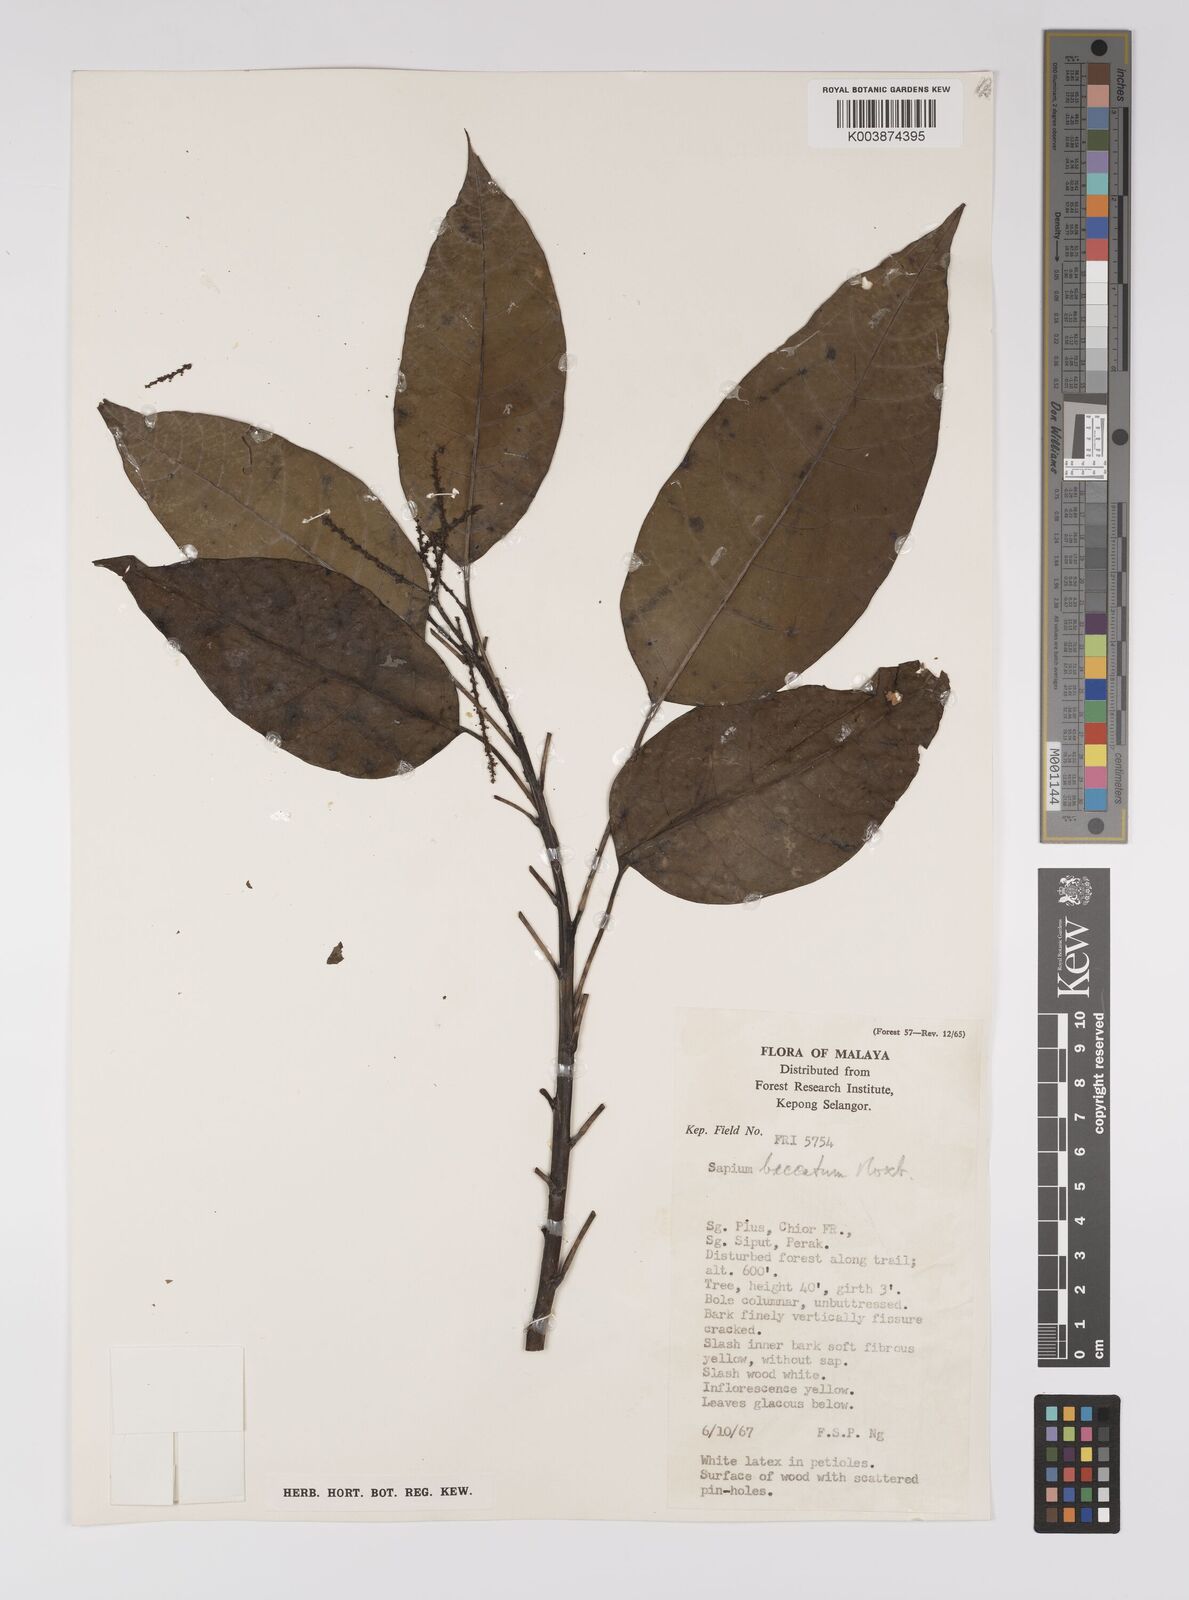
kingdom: Plantae
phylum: Tracheophyta
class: Magnoliopsida
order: Malpighiales
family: Euphorbiaceae
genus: Balakata
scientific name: Balakata baccata
